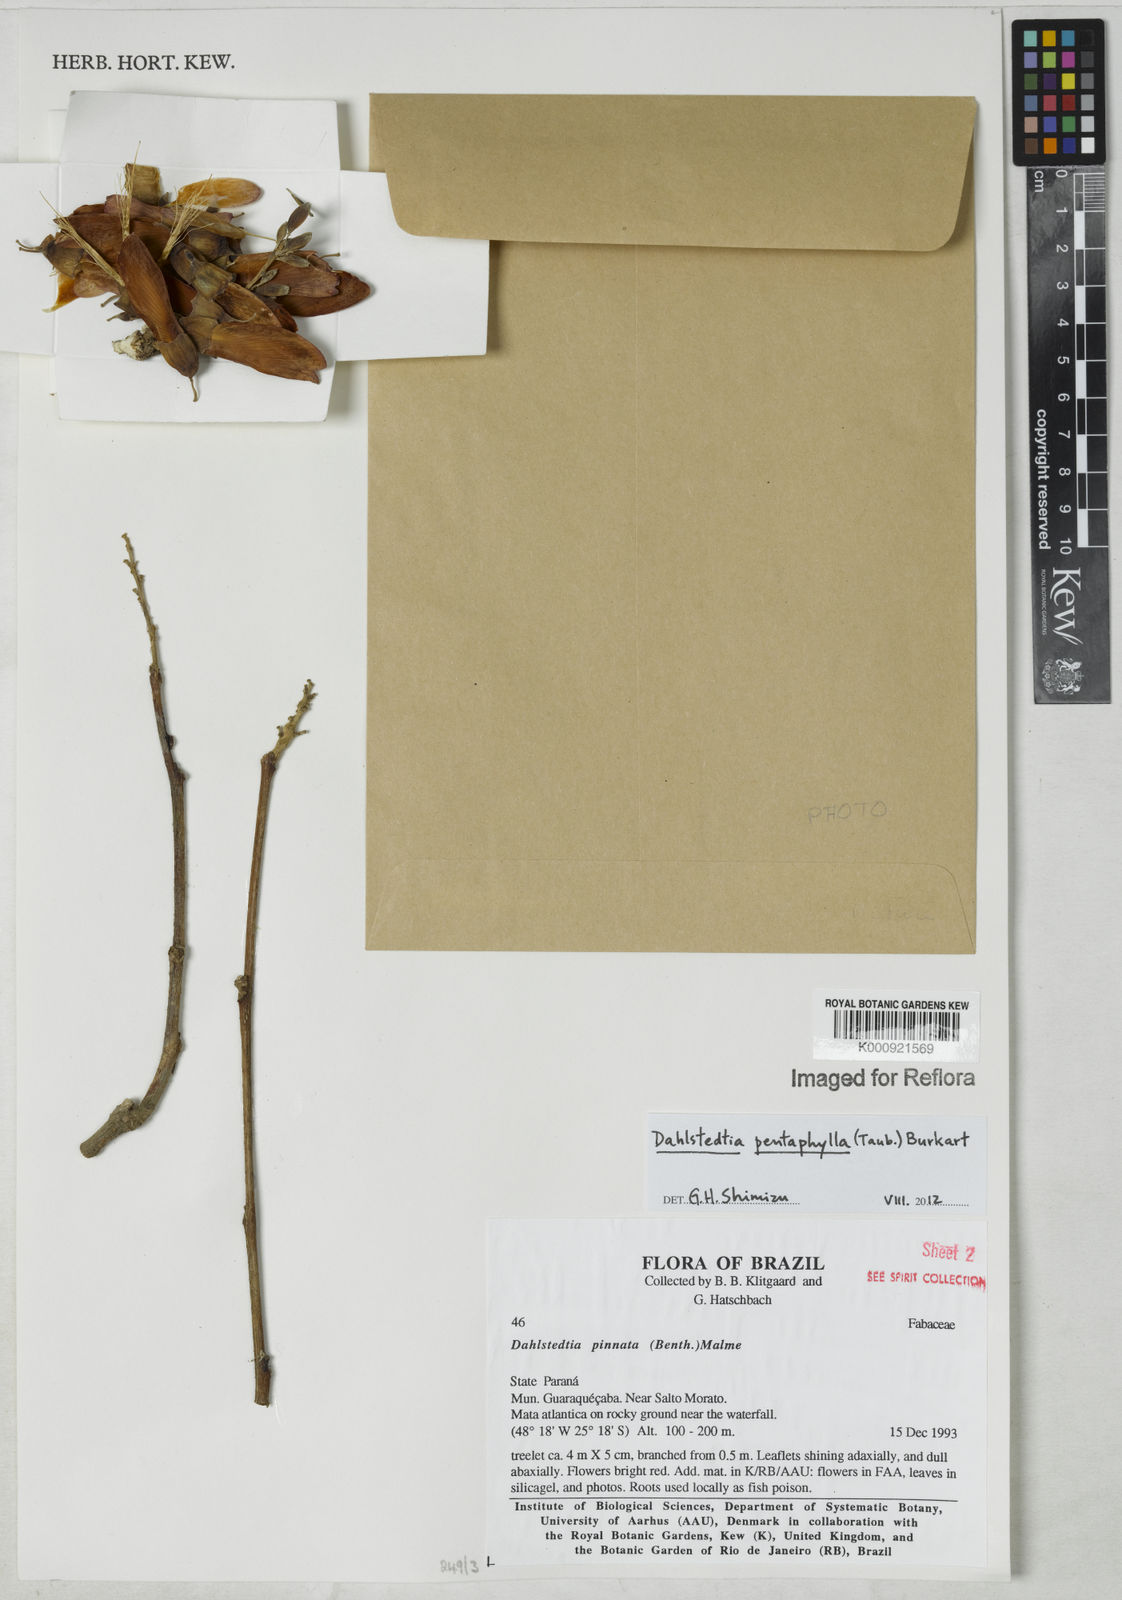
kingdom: Plantae
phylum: Tracheophyta
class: Magnoliopsida
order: Fabales
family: Fabaceae
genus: Dahlstedtia
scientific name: Dahlstedtia pentaphylla
